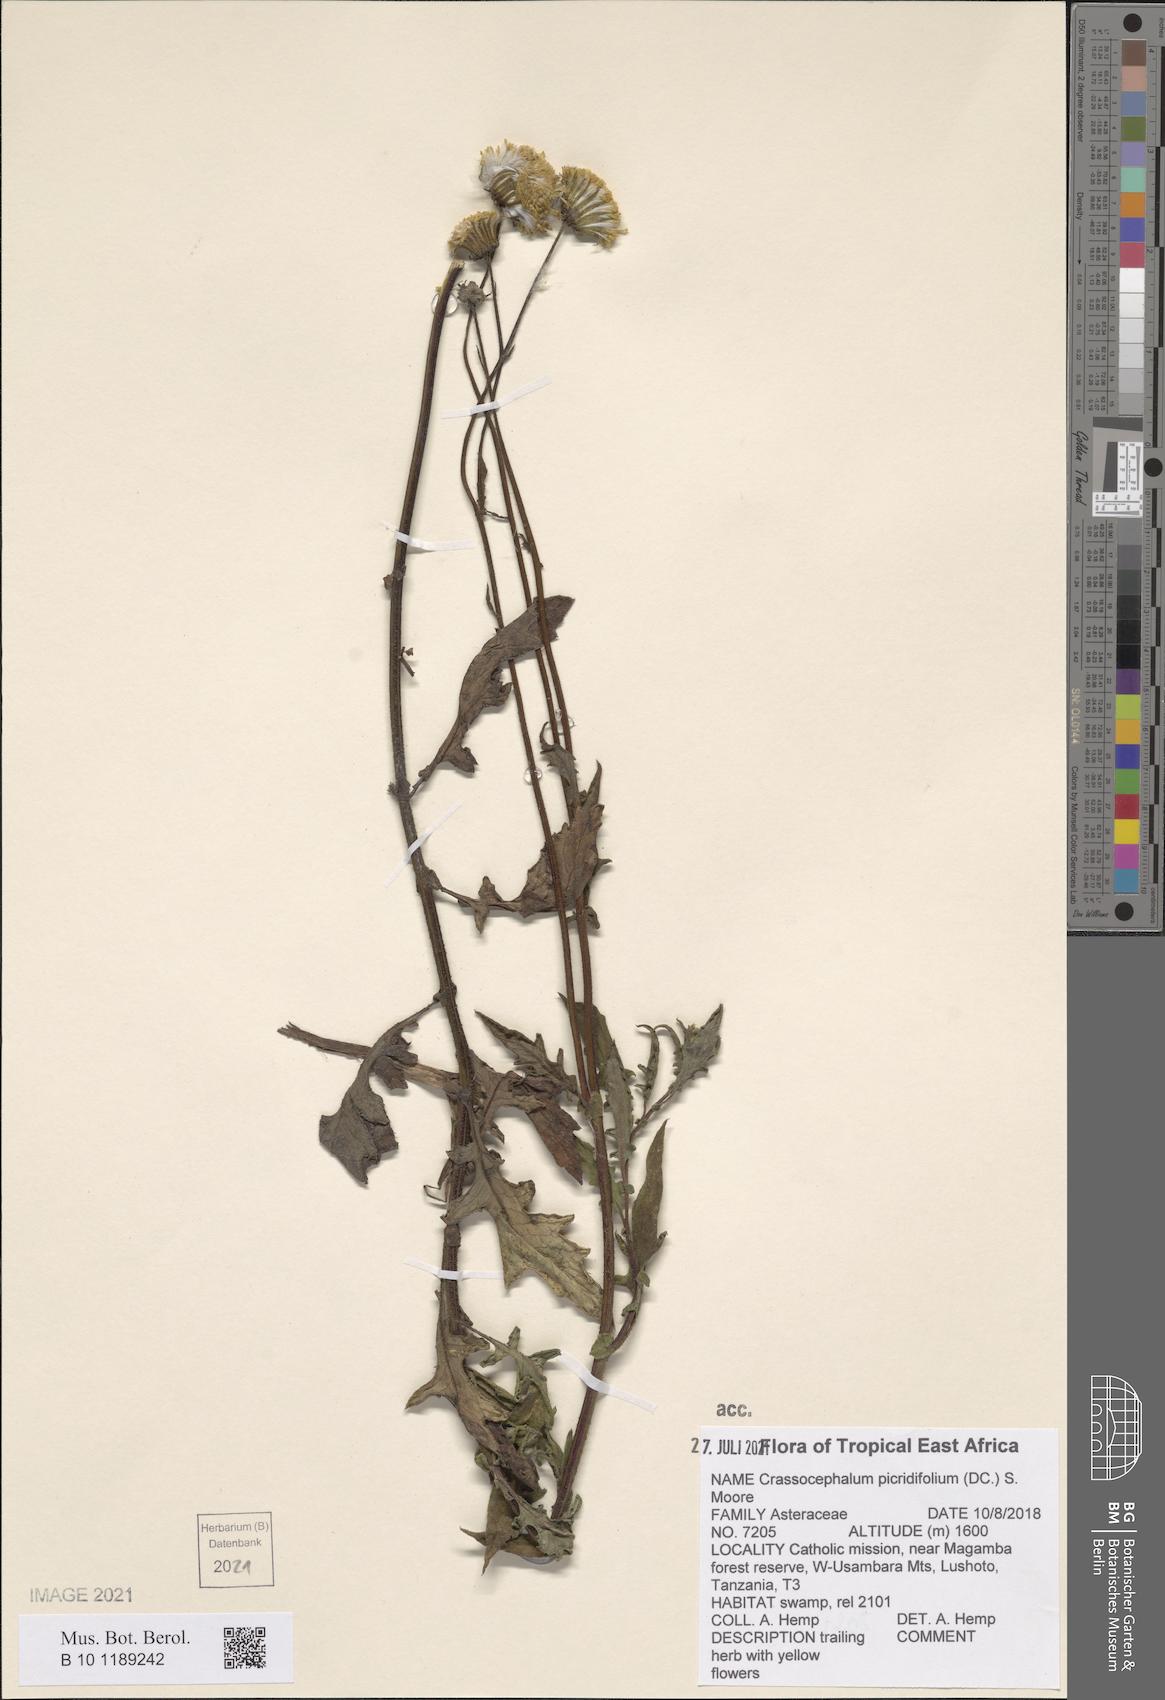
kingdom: Plantae
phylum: Tracheophyta
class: Magnoliopsida
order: Asterales
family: Asteraceae
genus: Crassocephalum
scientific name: Crassocephalum picridifolium
